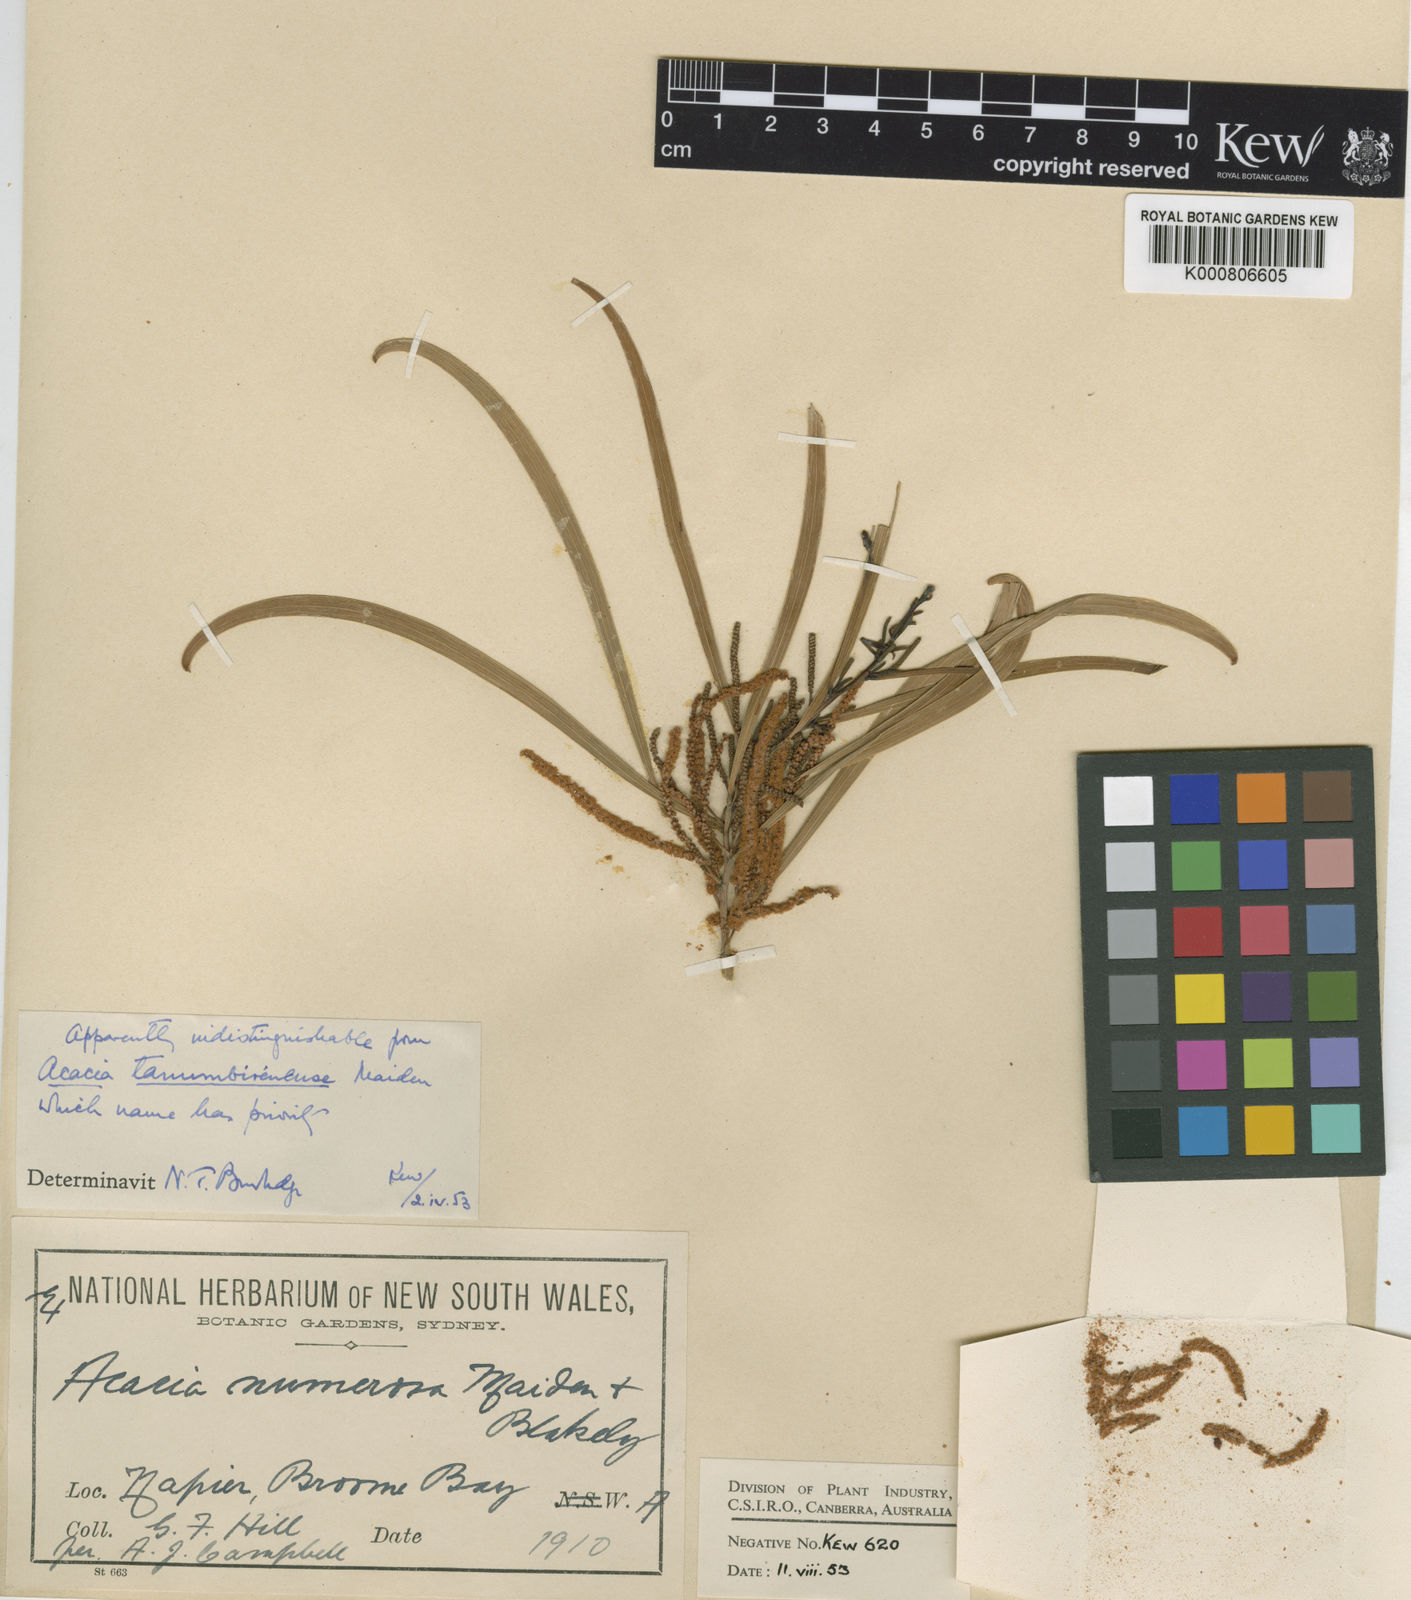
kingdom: Plantae
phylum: Tracheophyta
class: Magnoliopsida
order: Fabales
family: Fabaceae
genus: Acacia
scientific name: Acacia plectocarpa
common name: Black wattle
